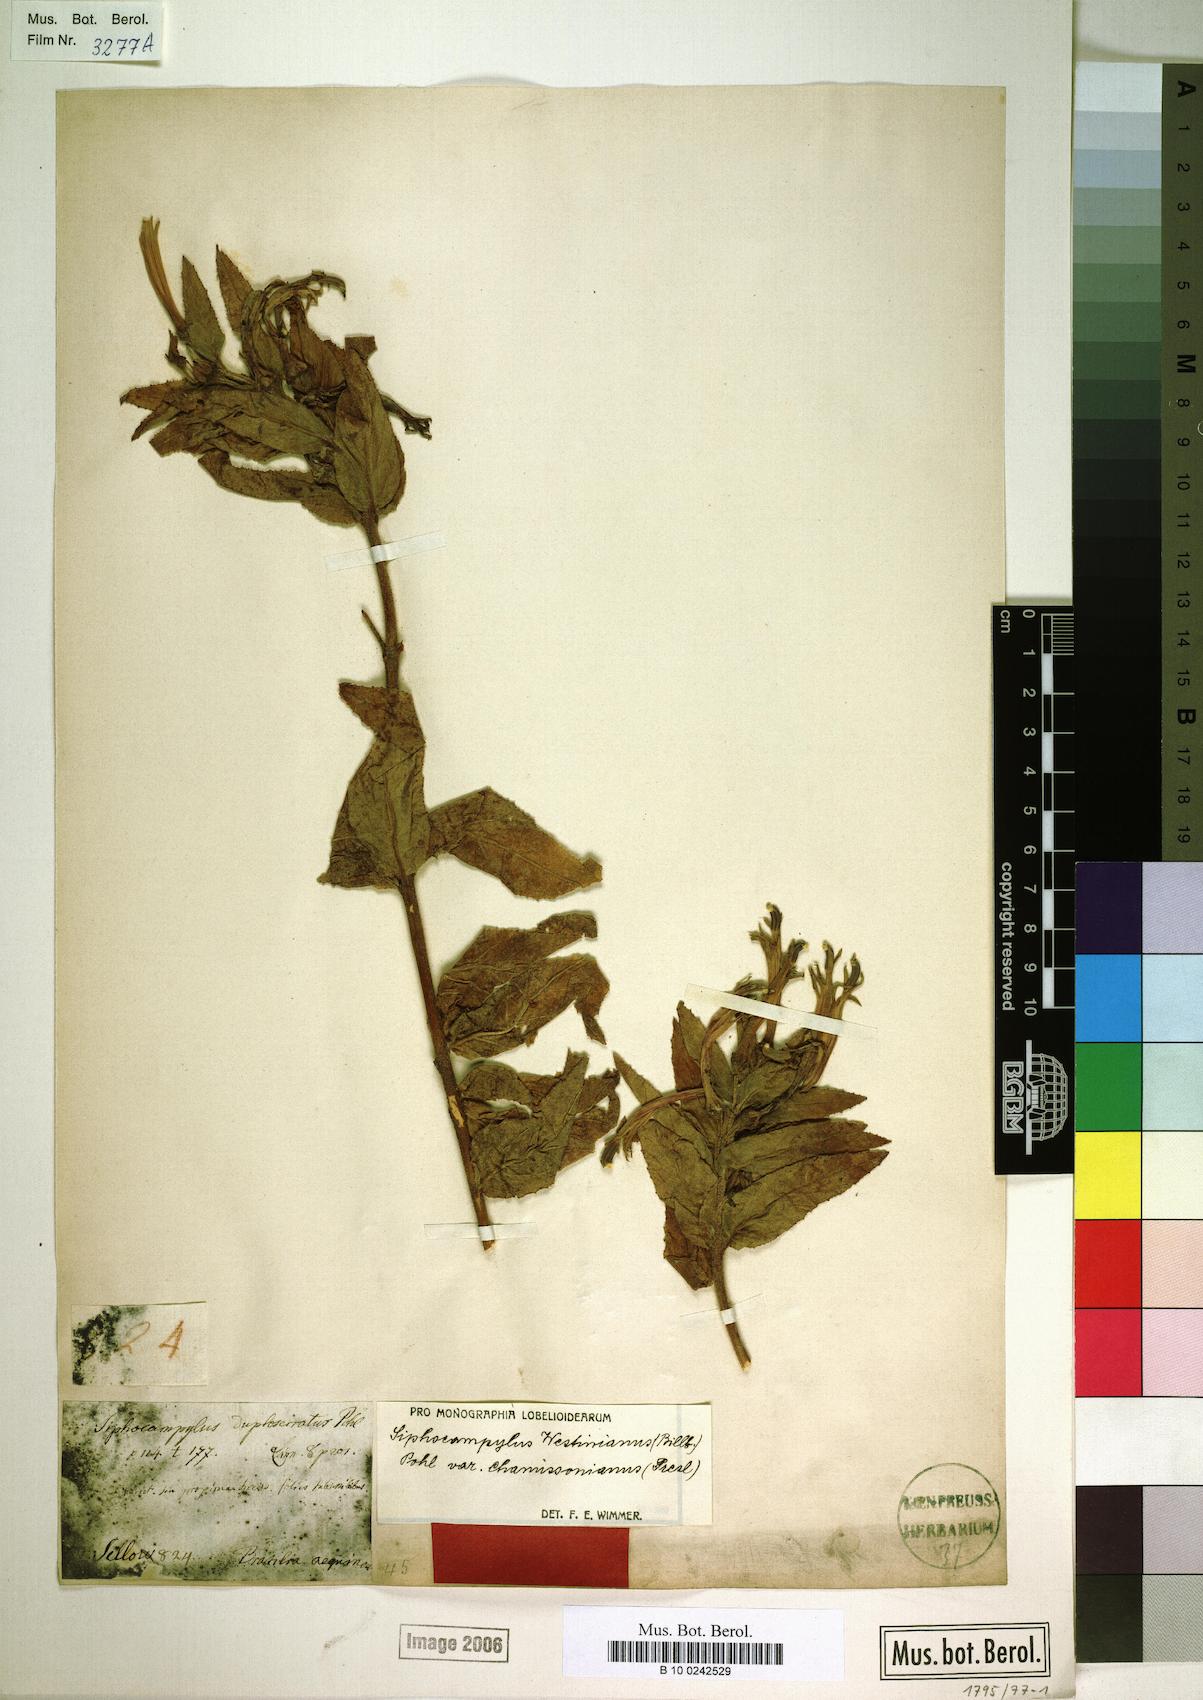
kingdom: Plantae
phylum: Tracheophyta
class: Magnoliopsida
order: Asterales
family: Campanulaceae
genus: Siphocampylus
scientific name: Siphocampylus westinianus
